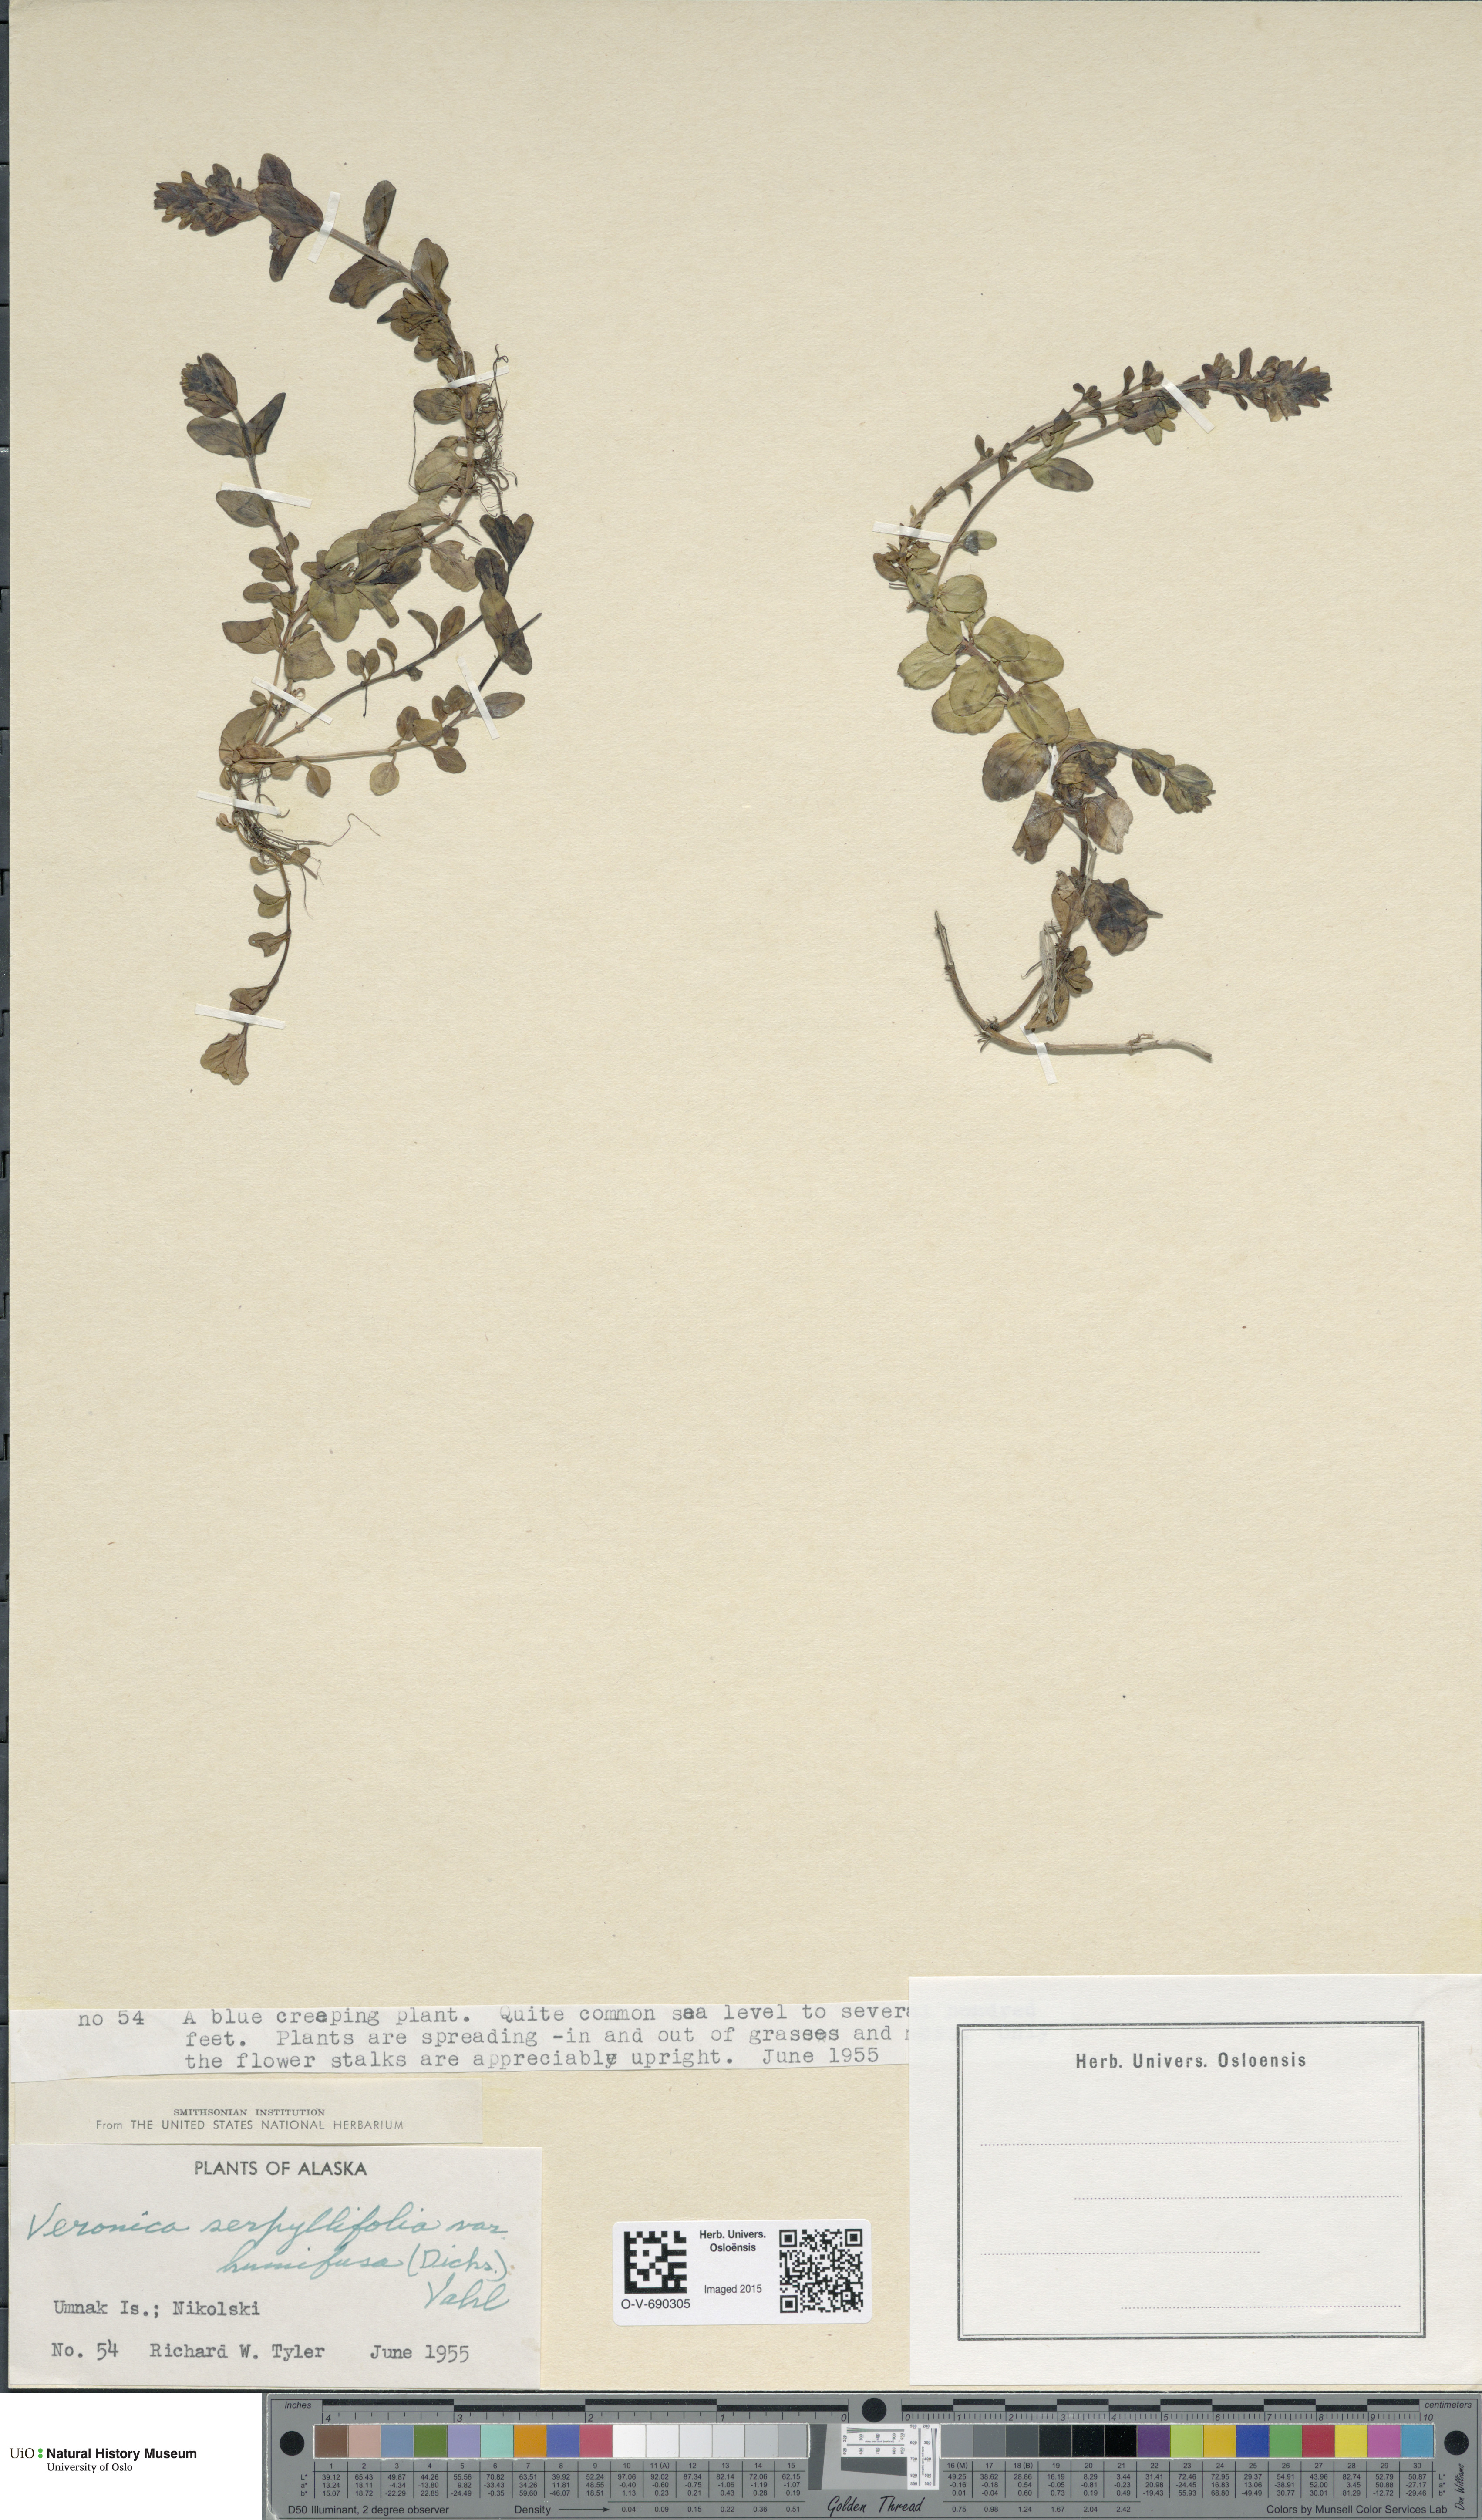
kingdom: Plantae
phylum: Tracheophyta
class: Magnoliopsida
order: Lamiales
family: Plantaginaceae
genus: Veronica
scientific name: Veronica serpyllifolia
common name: Thyme-leaved speedwell
